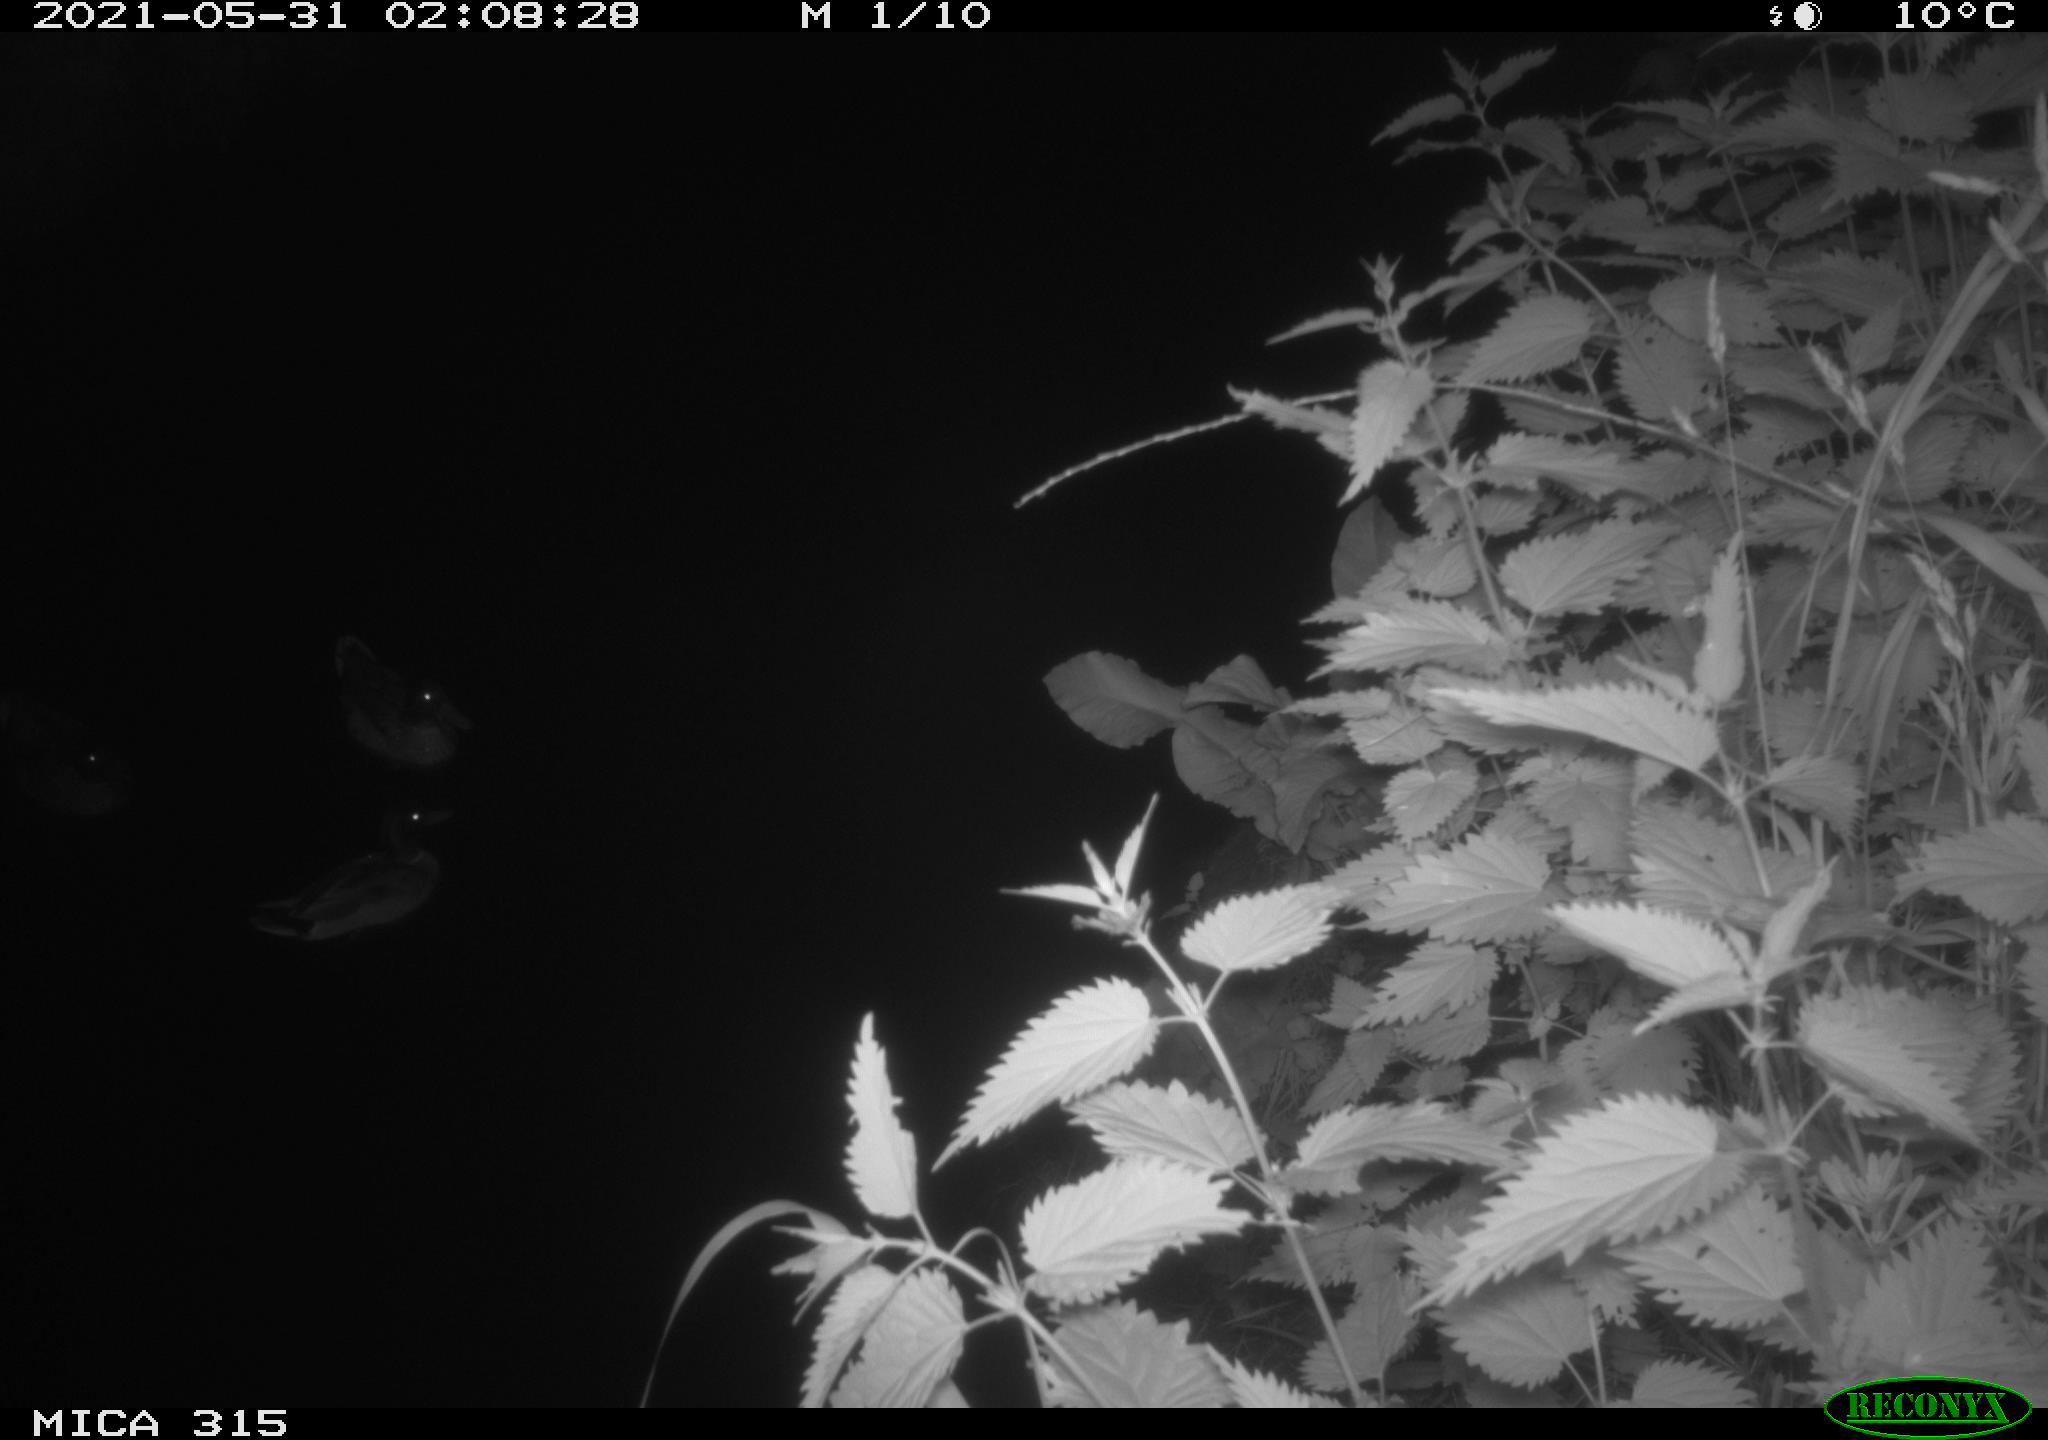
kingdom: Animalia
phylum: Chordata
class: Aves
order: Anseriformes
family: Anatidae
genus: Anas
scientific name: Anas
